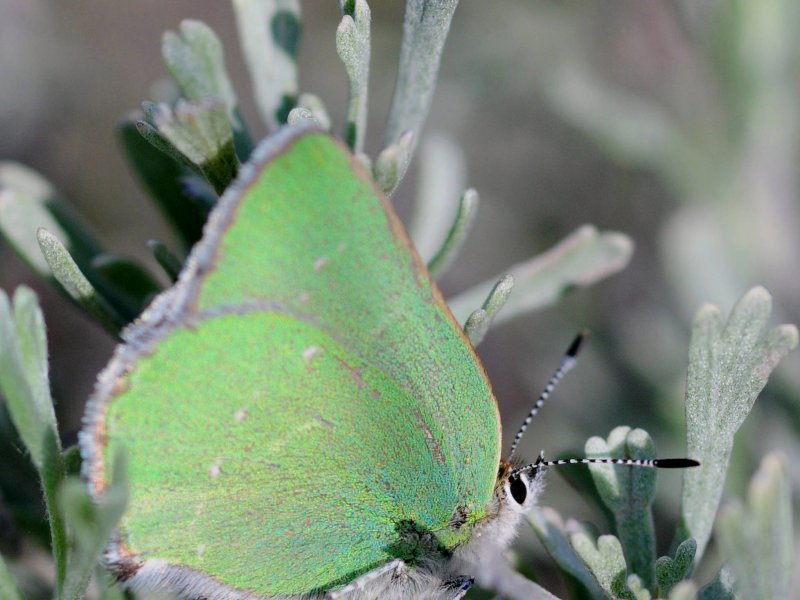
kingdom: Animalia
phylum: Arthropoda
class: Insecta
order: Lepidoptera
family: Lycaenidae
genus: Callophrys
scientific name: Callophrys affinis
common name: Western Green Hairstreak
